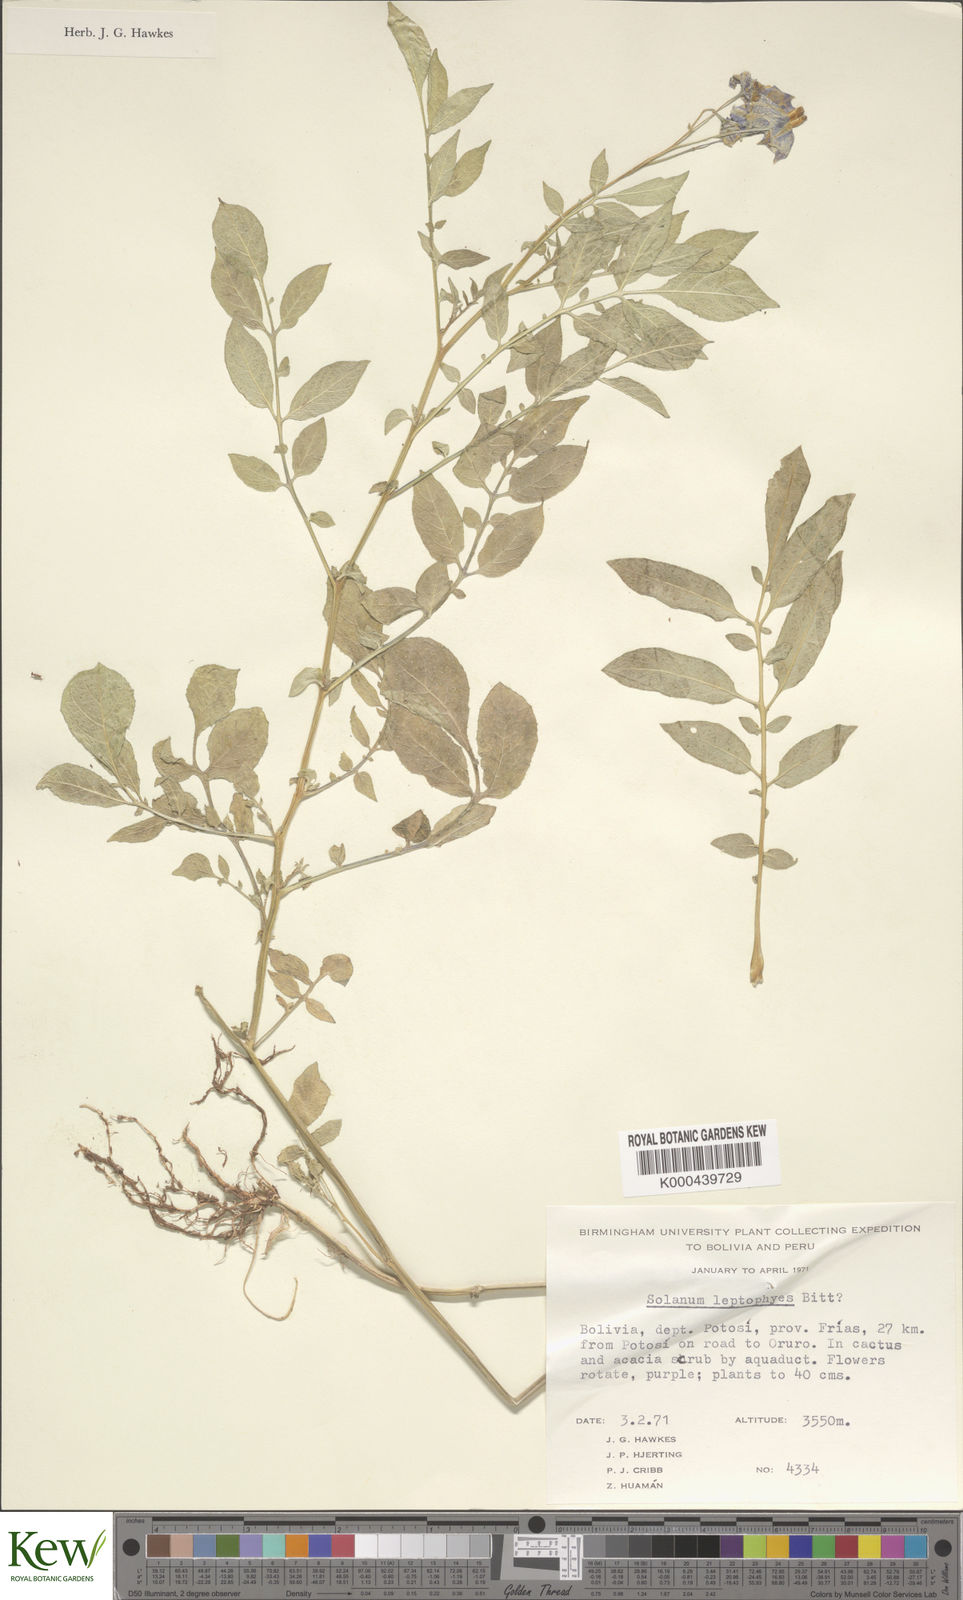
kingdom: Plantae
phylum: Tracheophyta
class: Magnoliopsida
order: Solanales
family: Solanaceae
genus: Solanum
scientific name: Solanum brevicaule
